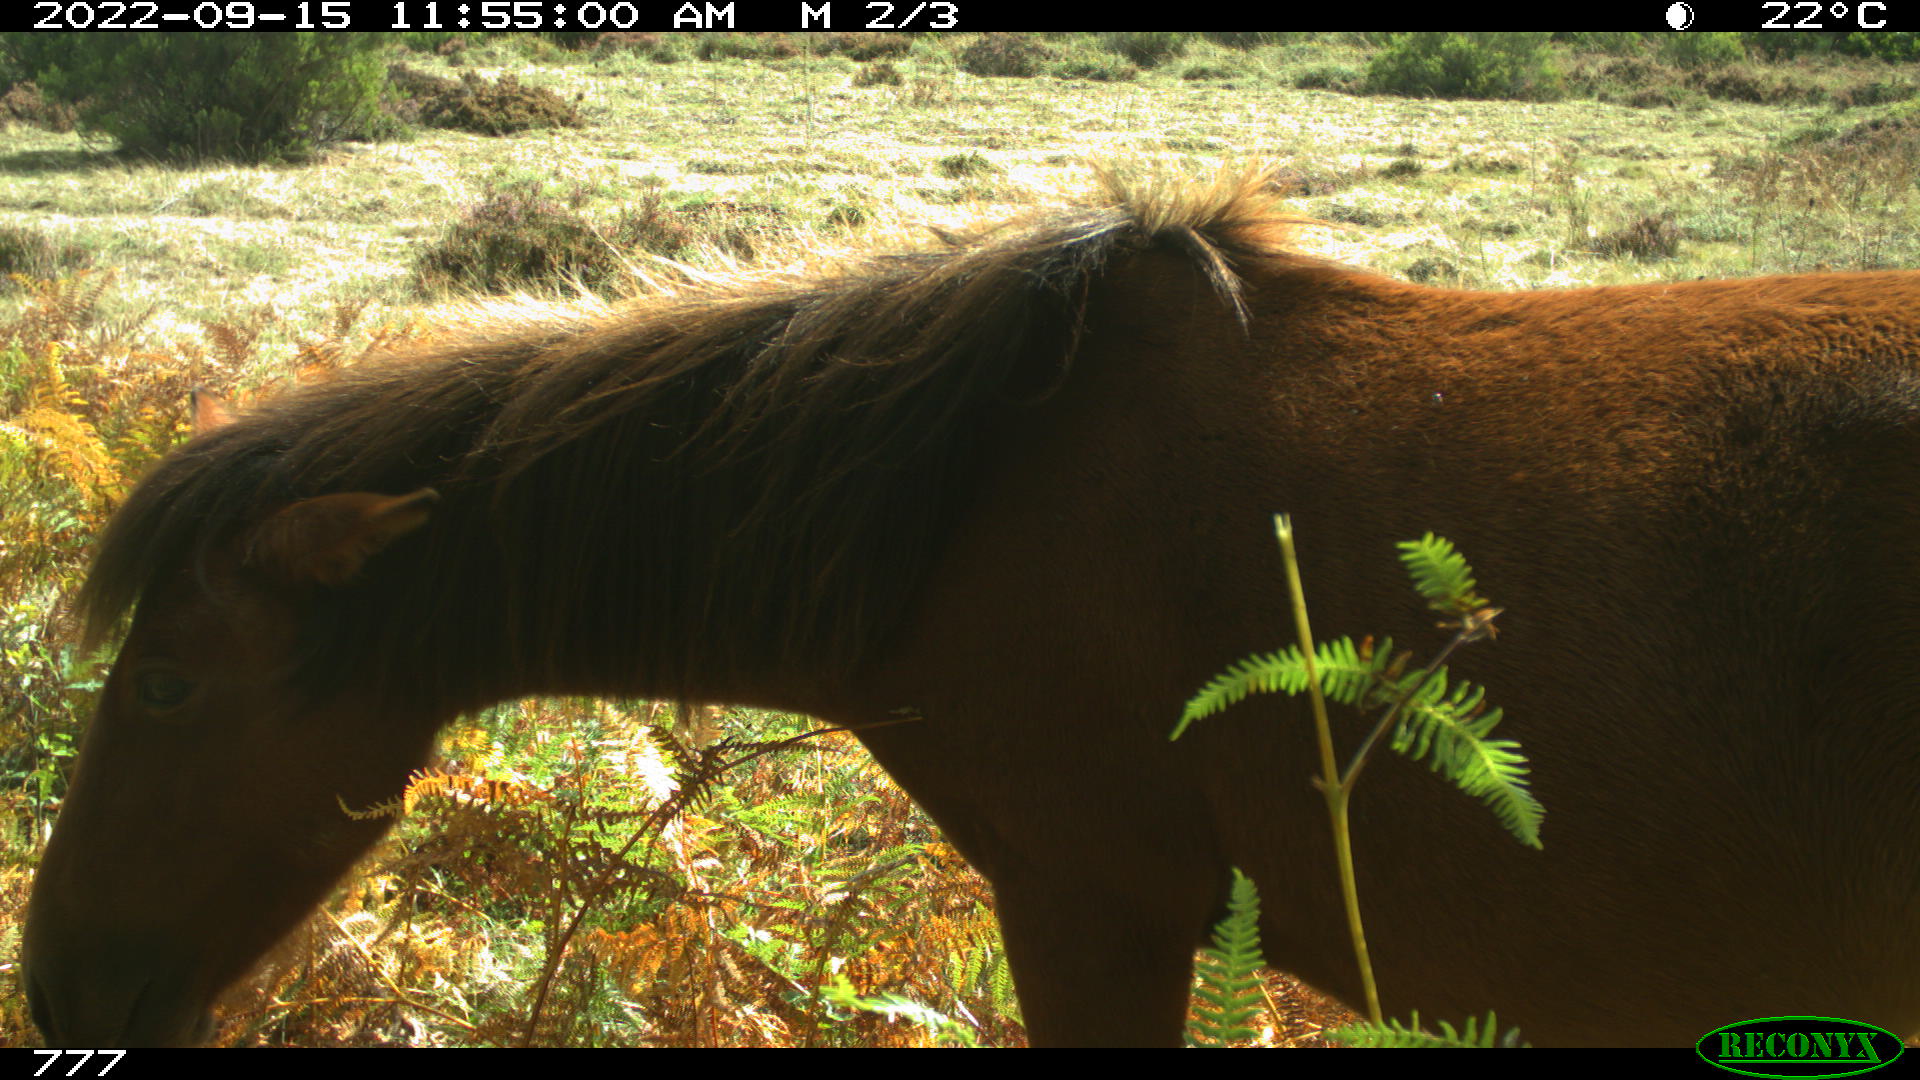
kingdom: Animalia
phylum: Chordata
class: Mammalia
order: Perissodactyla
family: Equidae
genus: Equus
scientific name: Equus caballus
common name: Horse
